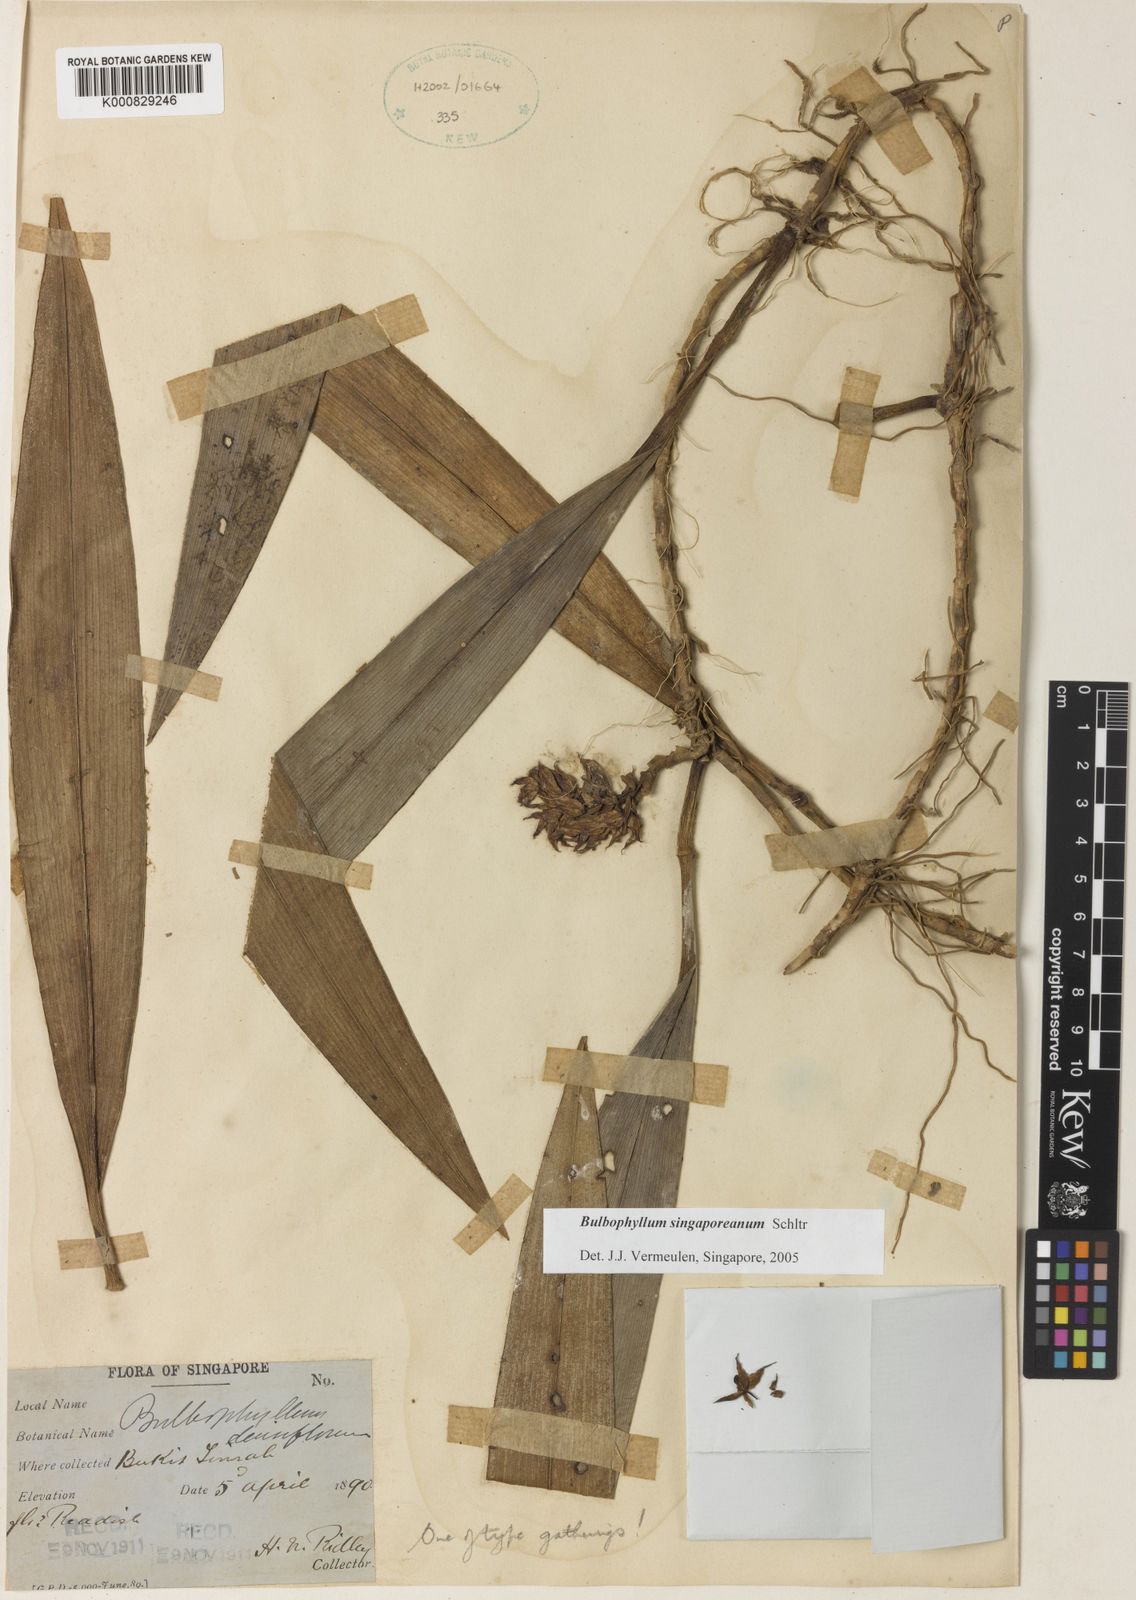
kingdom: Plantae
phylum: Tracheophyta
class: Liliopsida
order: Asparagales
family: Orchidaceae
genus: Bulbophyllum
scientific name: Bulbophyllum singaporeanum
